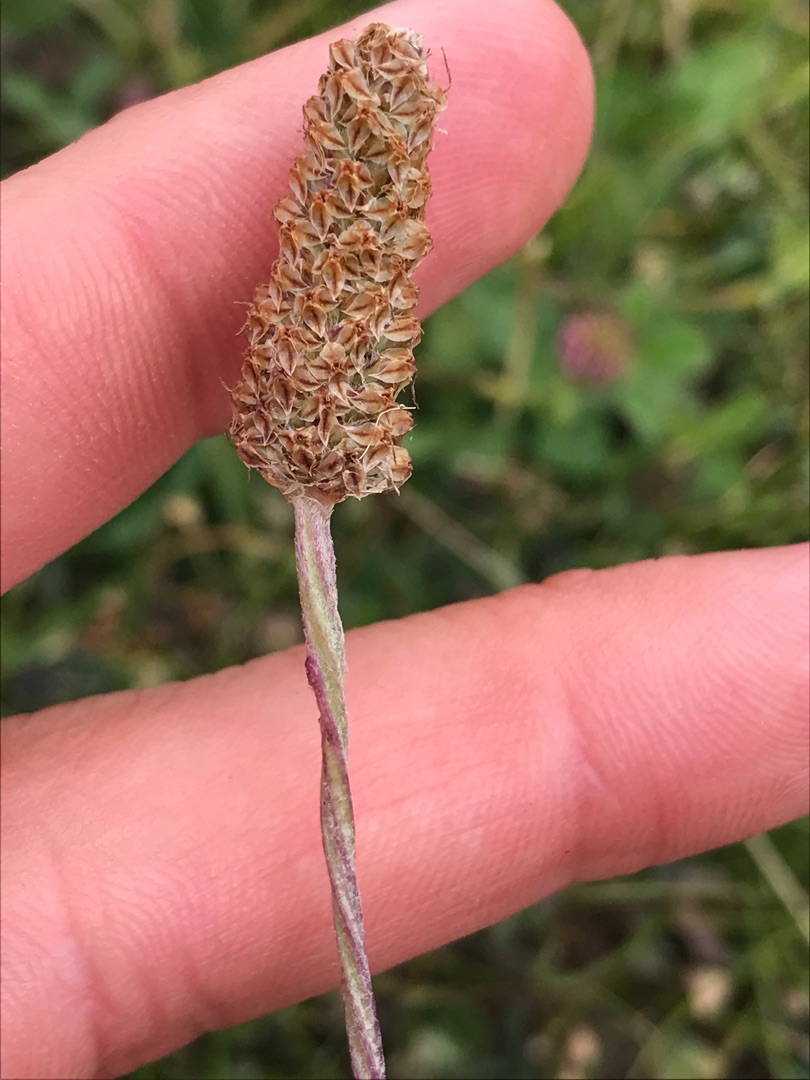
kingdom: Plantae
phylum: Tracheophyta
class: Magnoliopsida
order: Lamiales
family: Plantaginaceae
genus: Plantago
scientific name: Plantago lanceolata
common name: Lancet-vejbred
